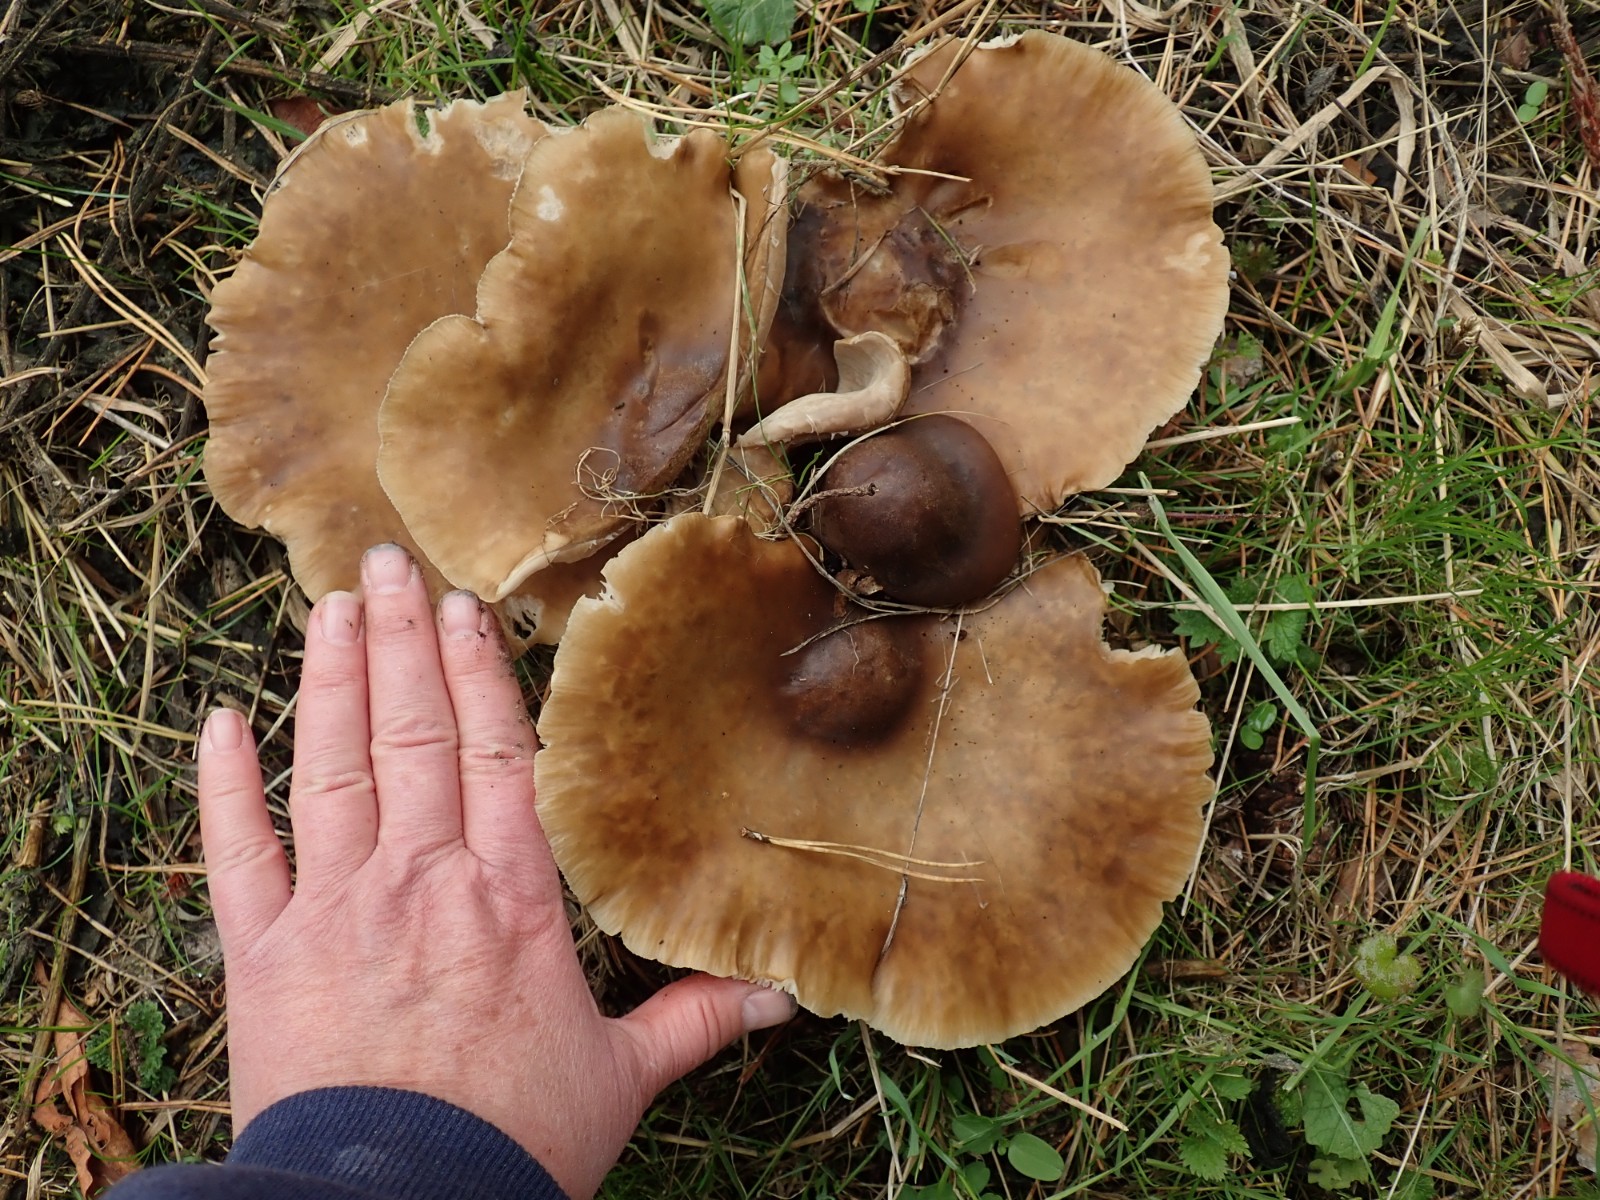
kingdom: Fungi
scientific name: Fungi
